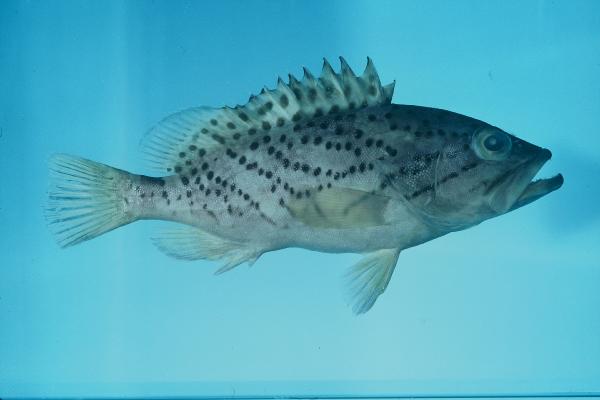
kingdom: Animalia
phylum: Chordata
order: Perciformes
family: Serranidae
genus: Epinephelus
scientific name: Epinephelus magniscuttis
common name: Speckled grouper
